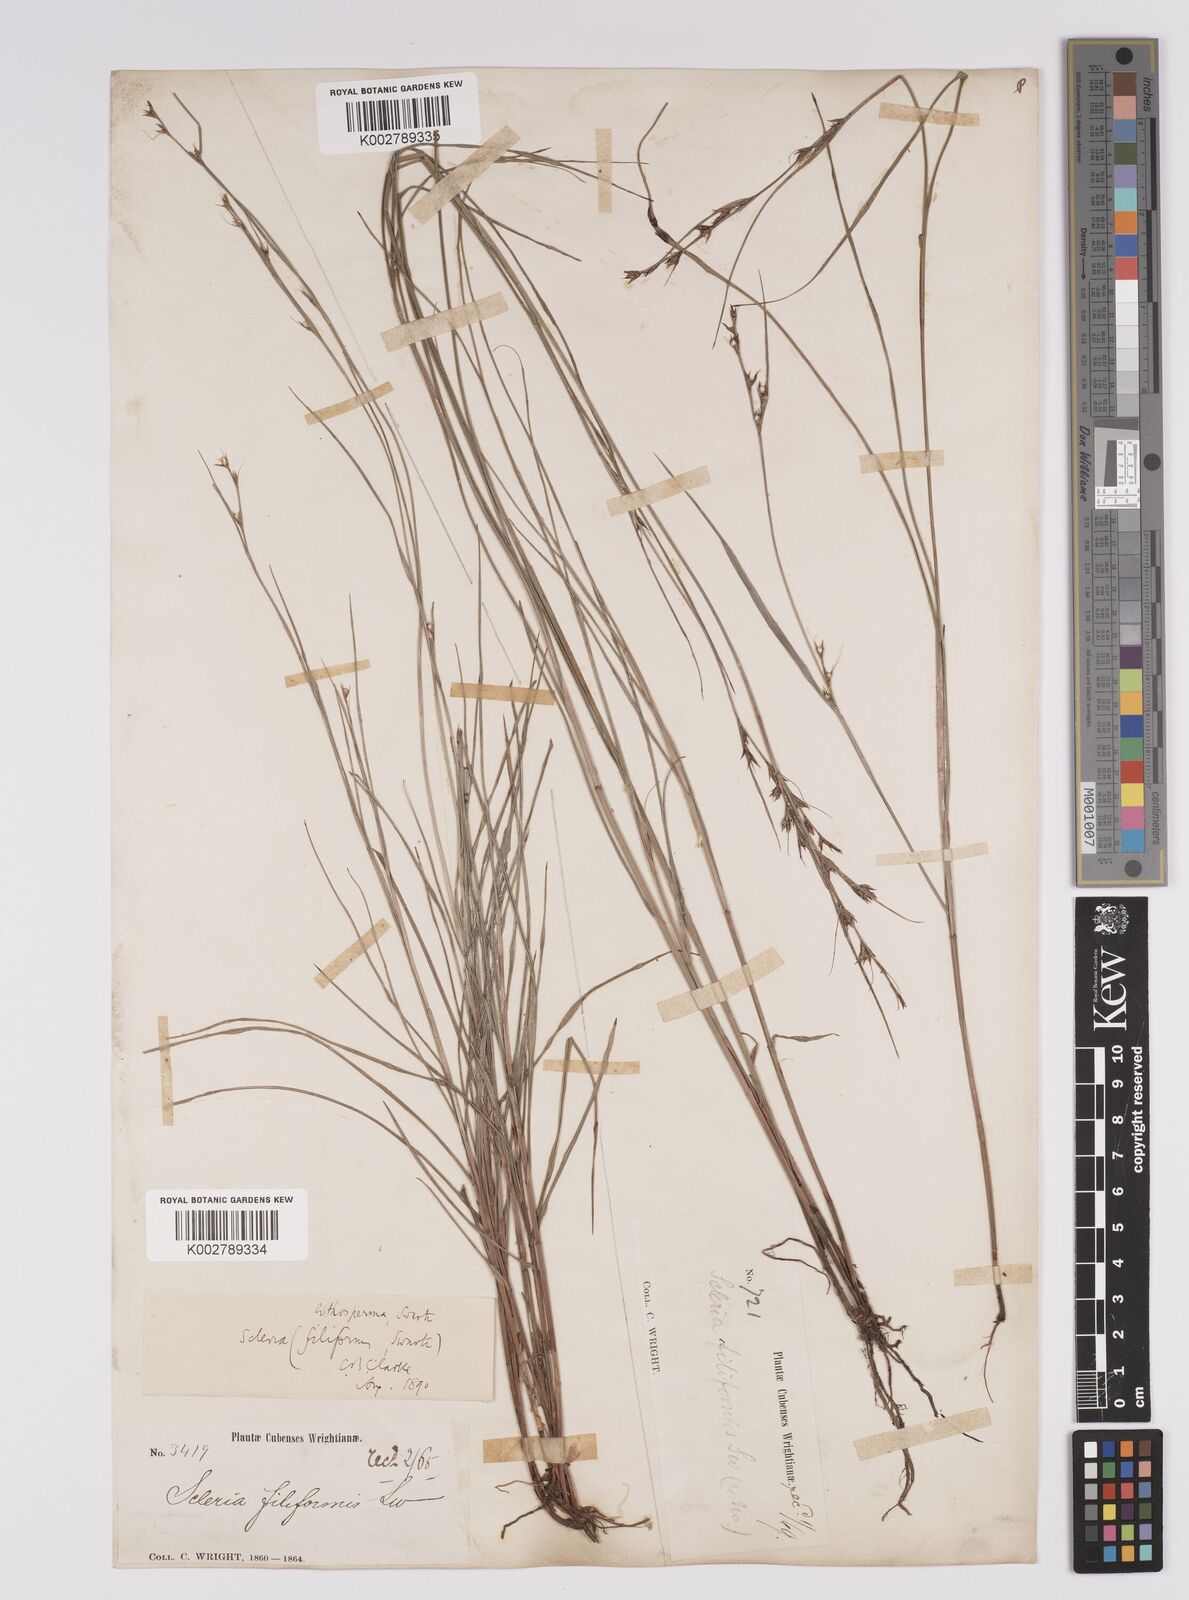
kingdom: Plantae
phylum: Tracheophyta
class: Liliopsida
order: Poales
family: Cyperaceae
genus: Scleria
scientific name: Scleria lithosperma
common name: Florida keys nut-rush
